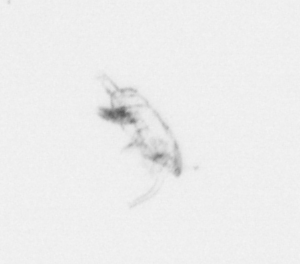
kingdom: Chromista
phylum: Ochrophyta
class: Bacillariophyceae
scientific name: Bacillariophyceae
